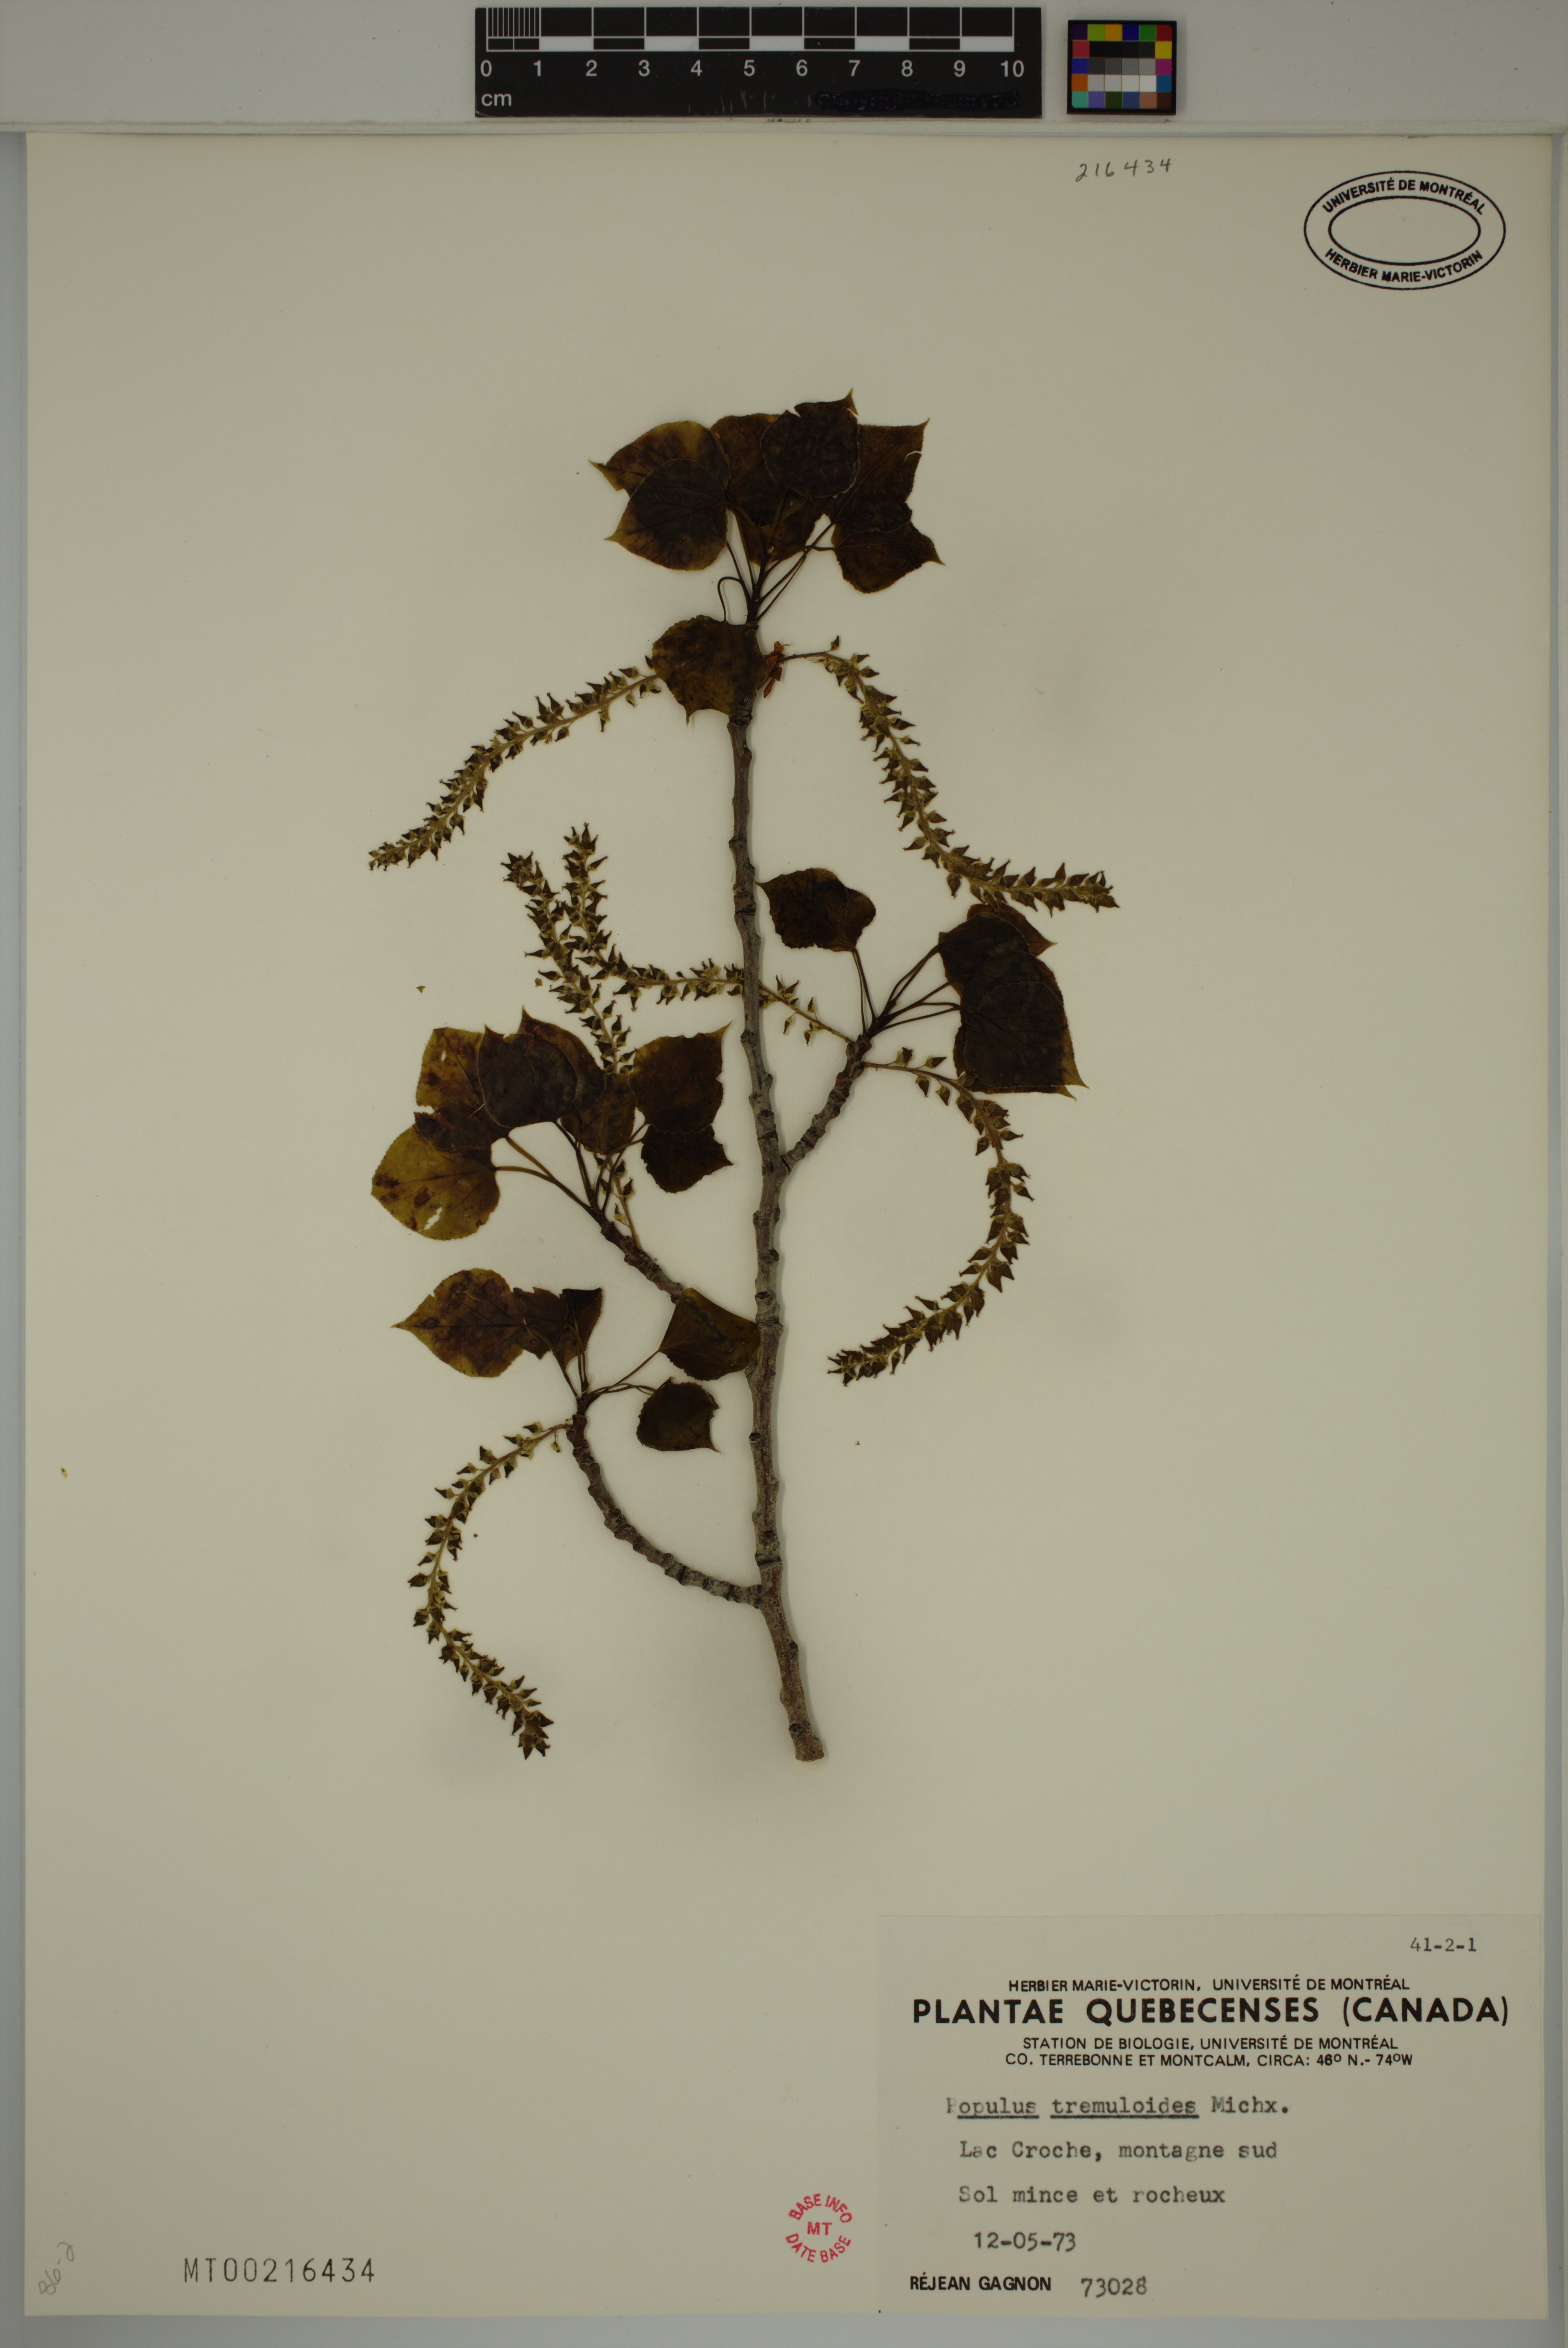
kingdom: Plantae
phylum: Tracheophyta
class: Magnoliopsida
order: Malpighiales
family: Salicaceae
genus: Populus
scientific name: Populus tremuloides
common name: Quaking aspen
